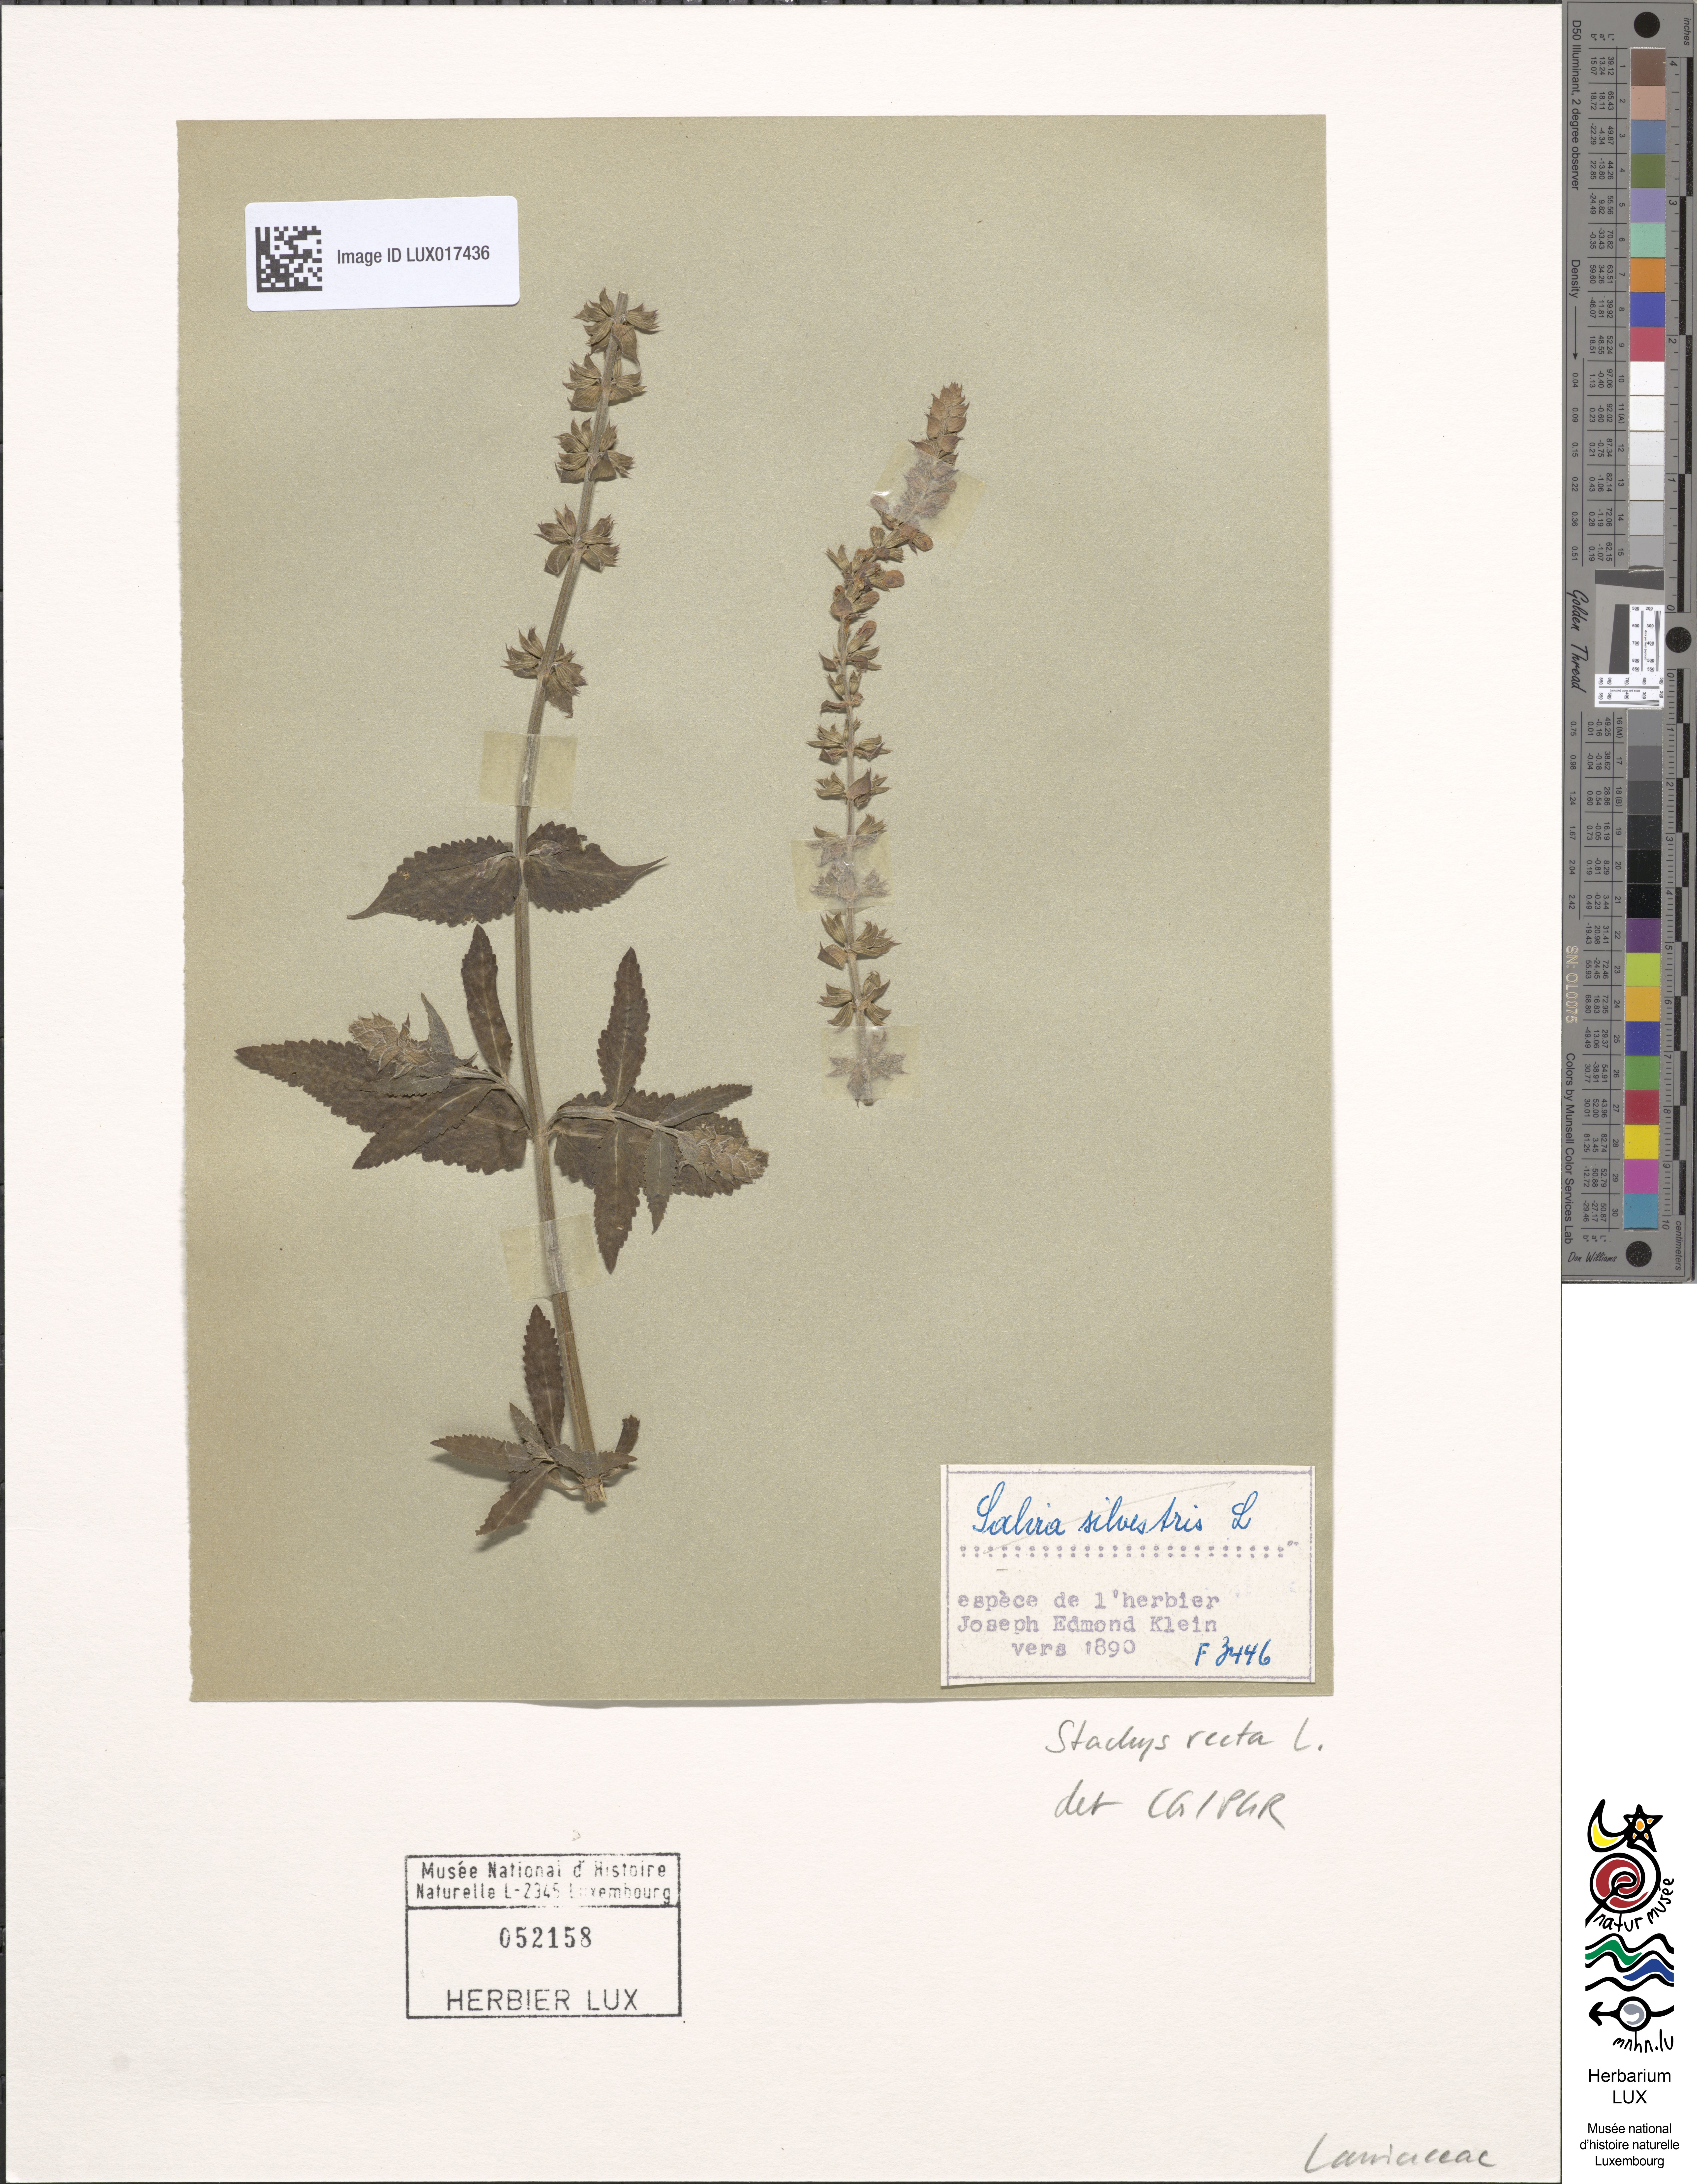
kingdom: Plantae
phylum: Tracheophyta
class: Magnoliopsida
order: Lamiales
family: Lamiaceae
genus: Stachys
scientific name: Stachys recta
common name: Perennial yellow-woundwort
